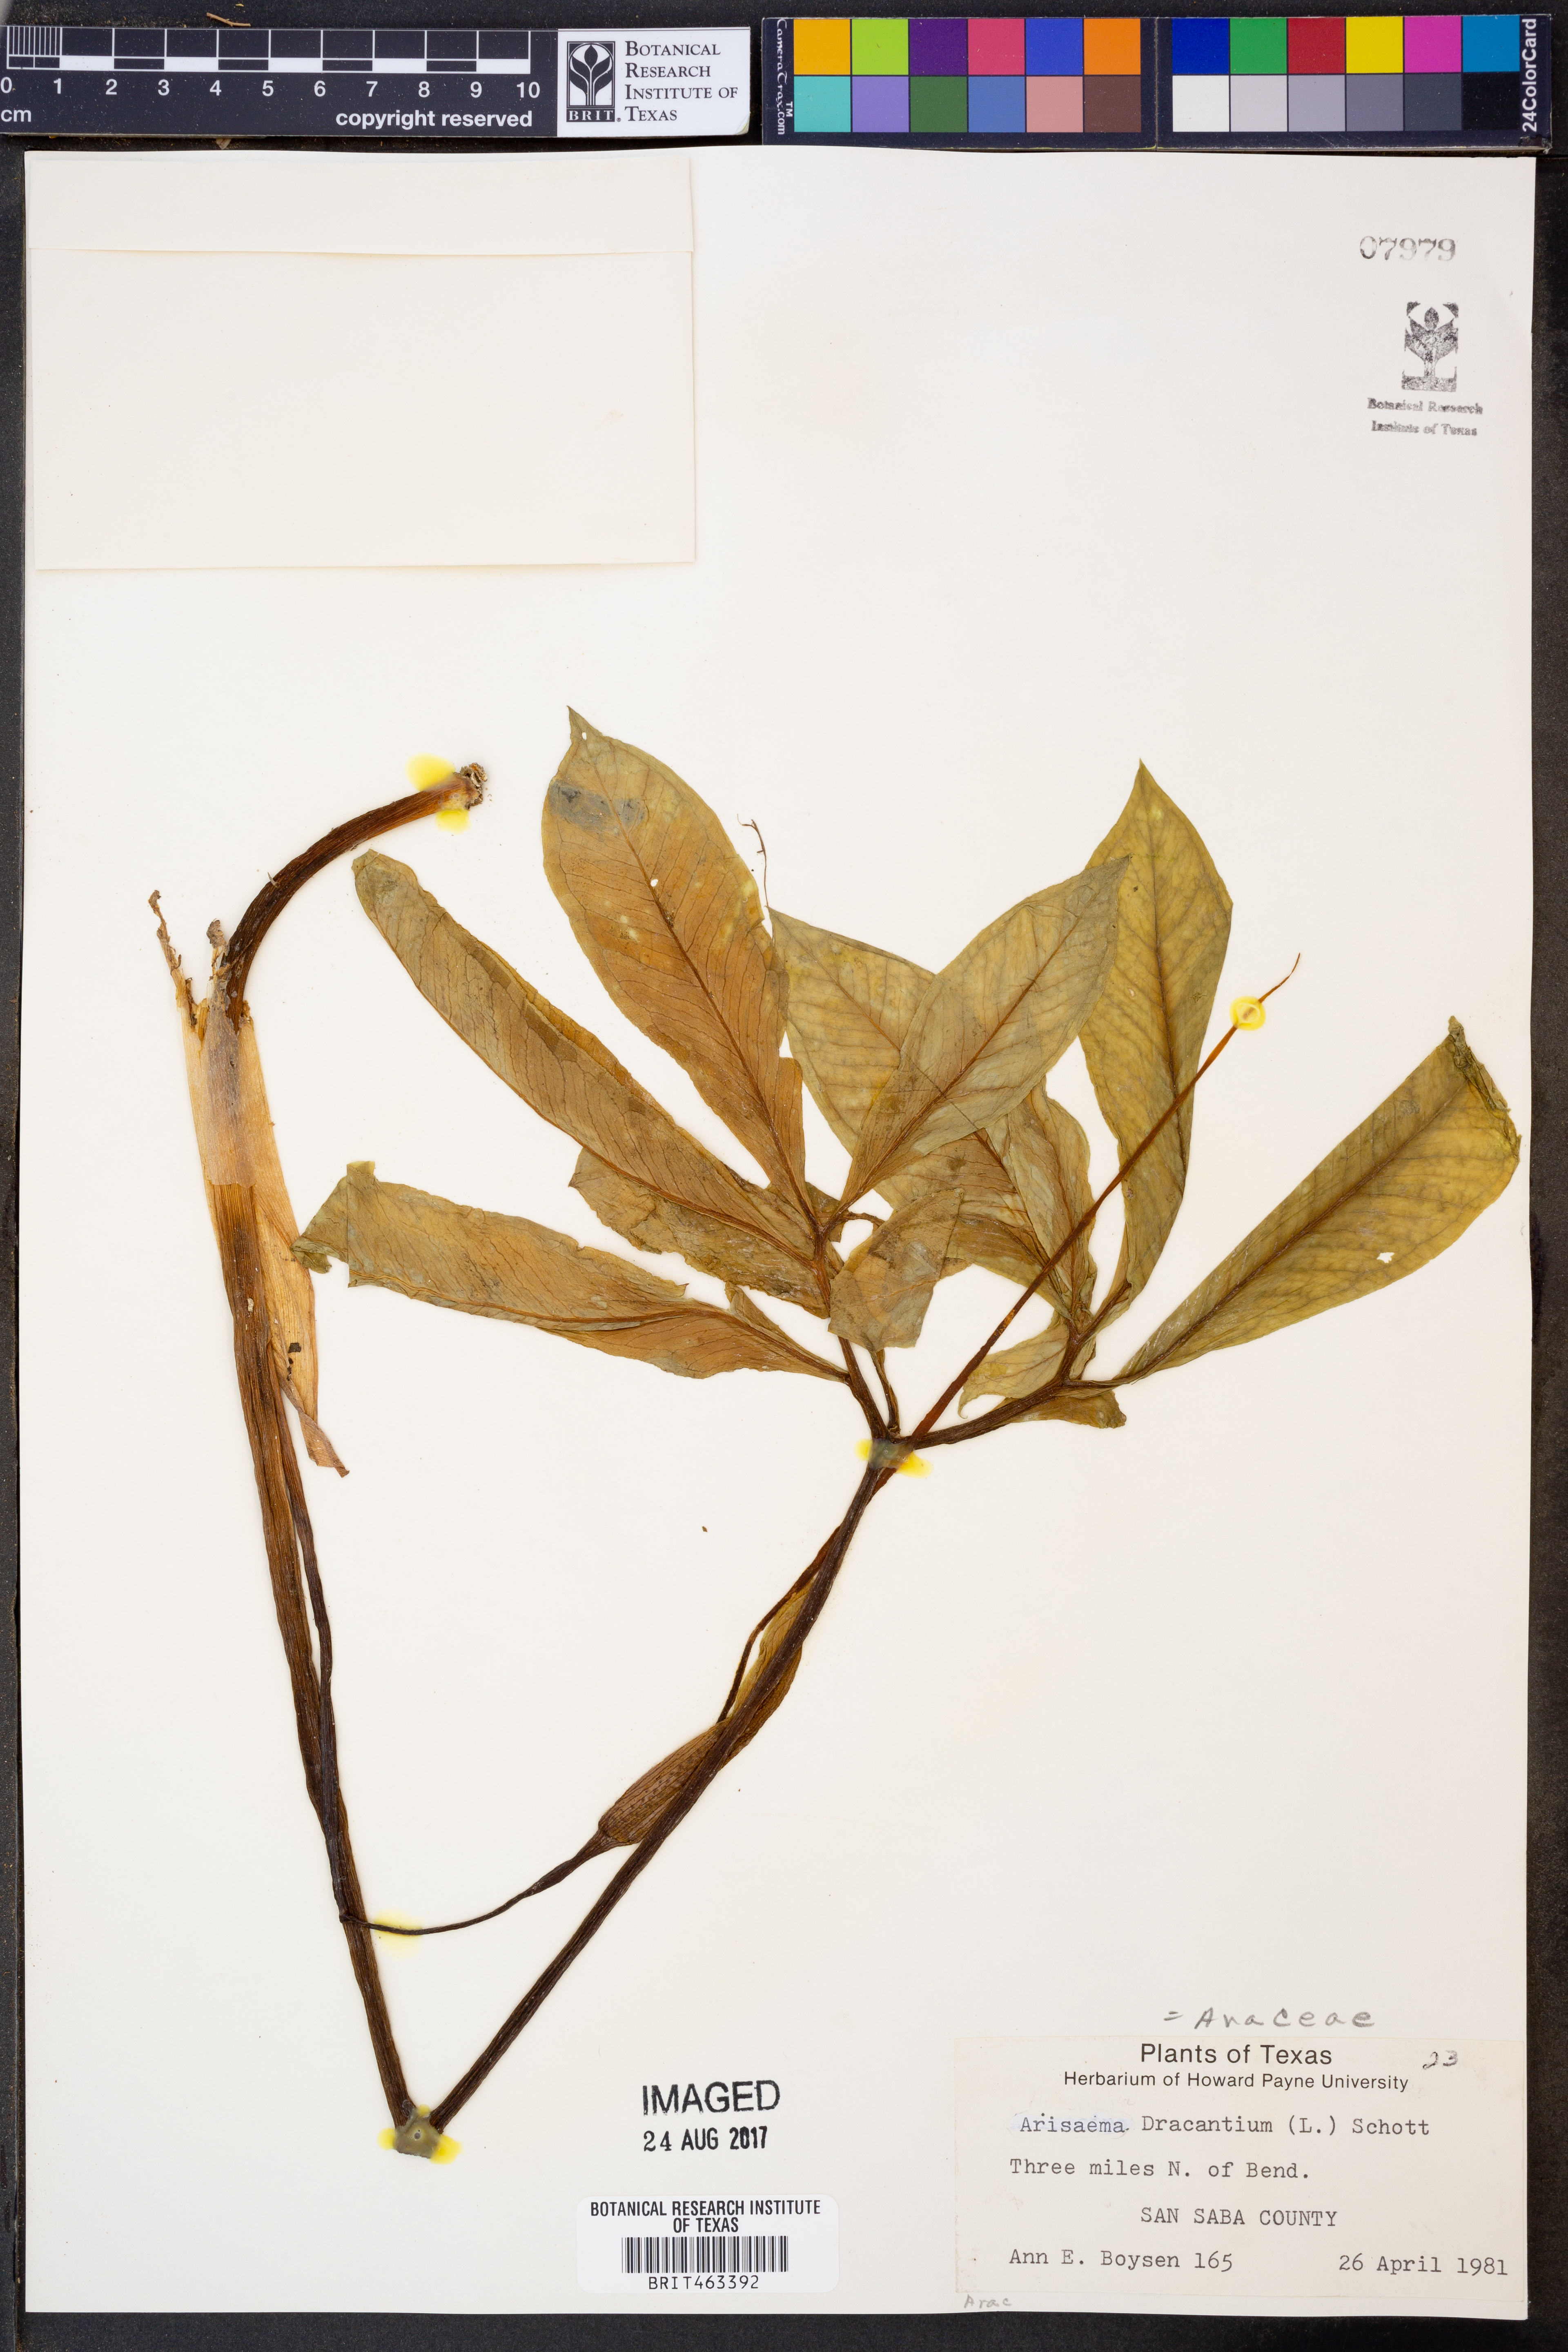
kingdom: Plantae
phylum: Tracheophyta
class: Liliopsida
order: Alismatales
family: Araceae
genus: Arisaema
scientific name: Arisaema dracontium
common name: Dragon-arum
